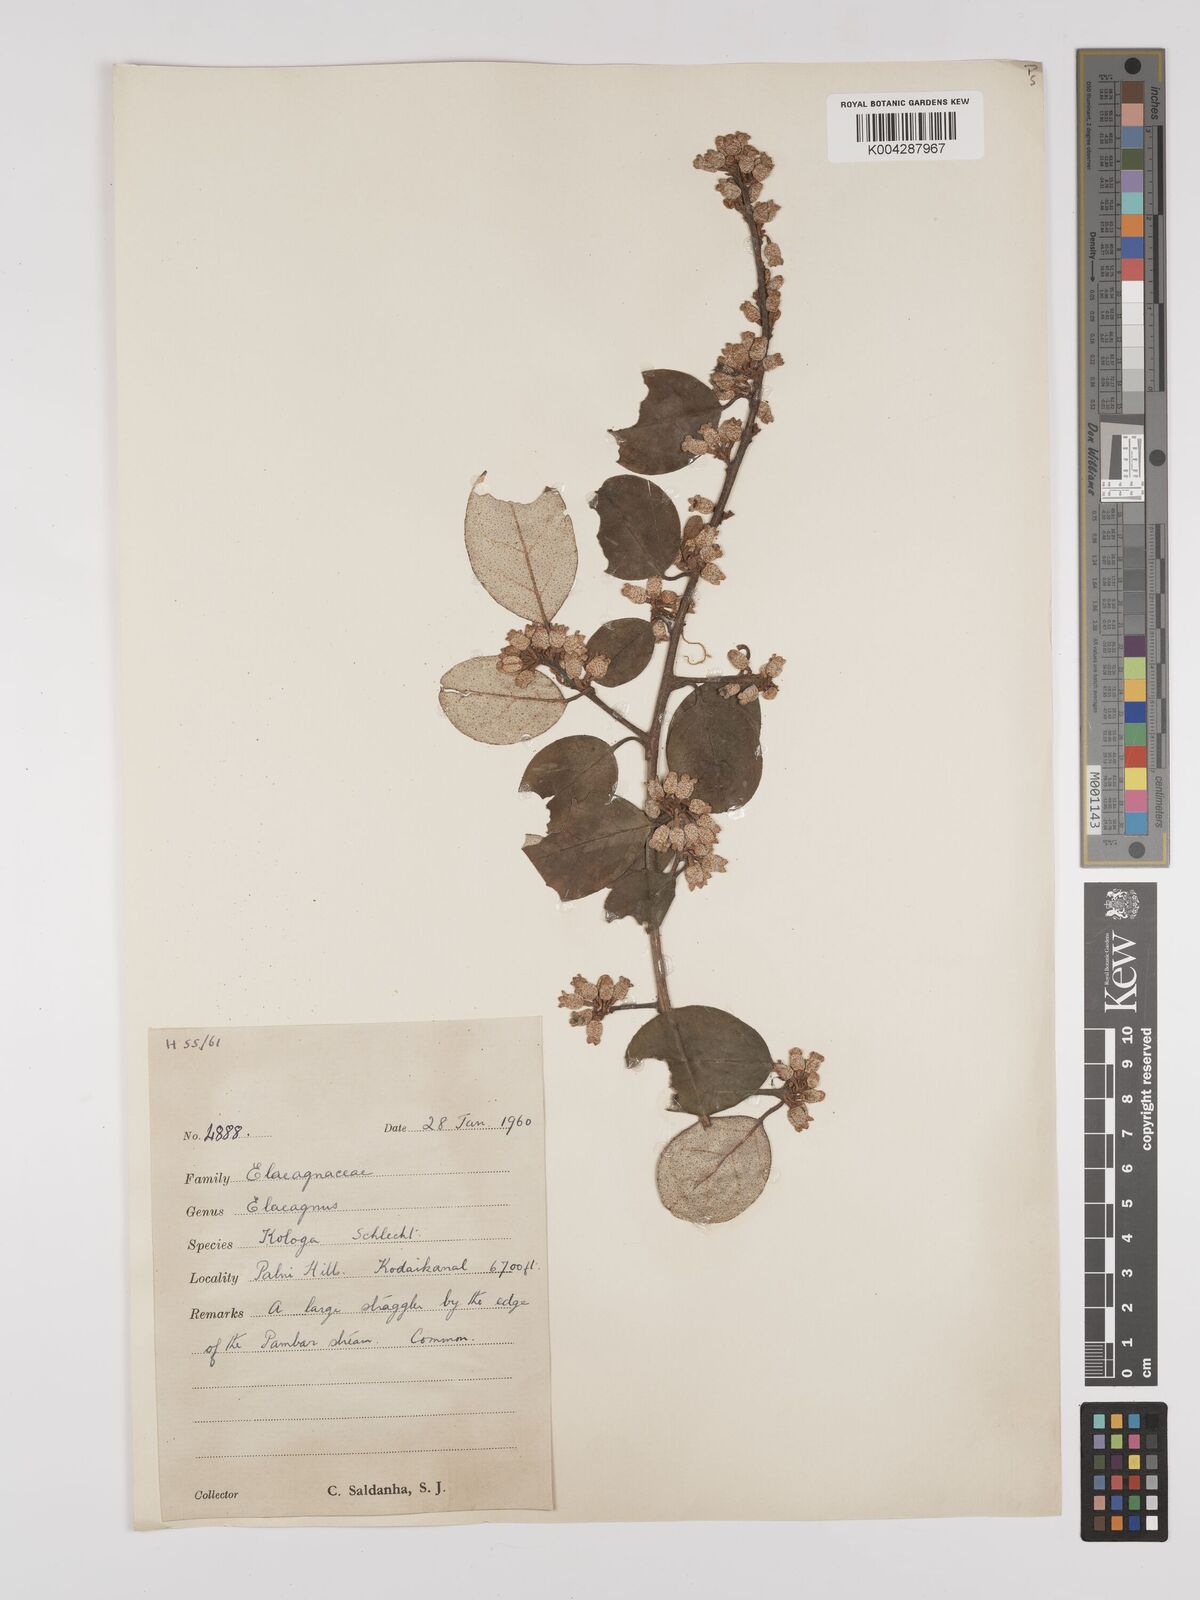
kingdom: Plantae
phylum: Tracheophyta
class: Magnoliopsida
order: Rosales
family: Elaeagnaceae
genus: Elaeagnus
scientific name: Elaeagnus conferta
